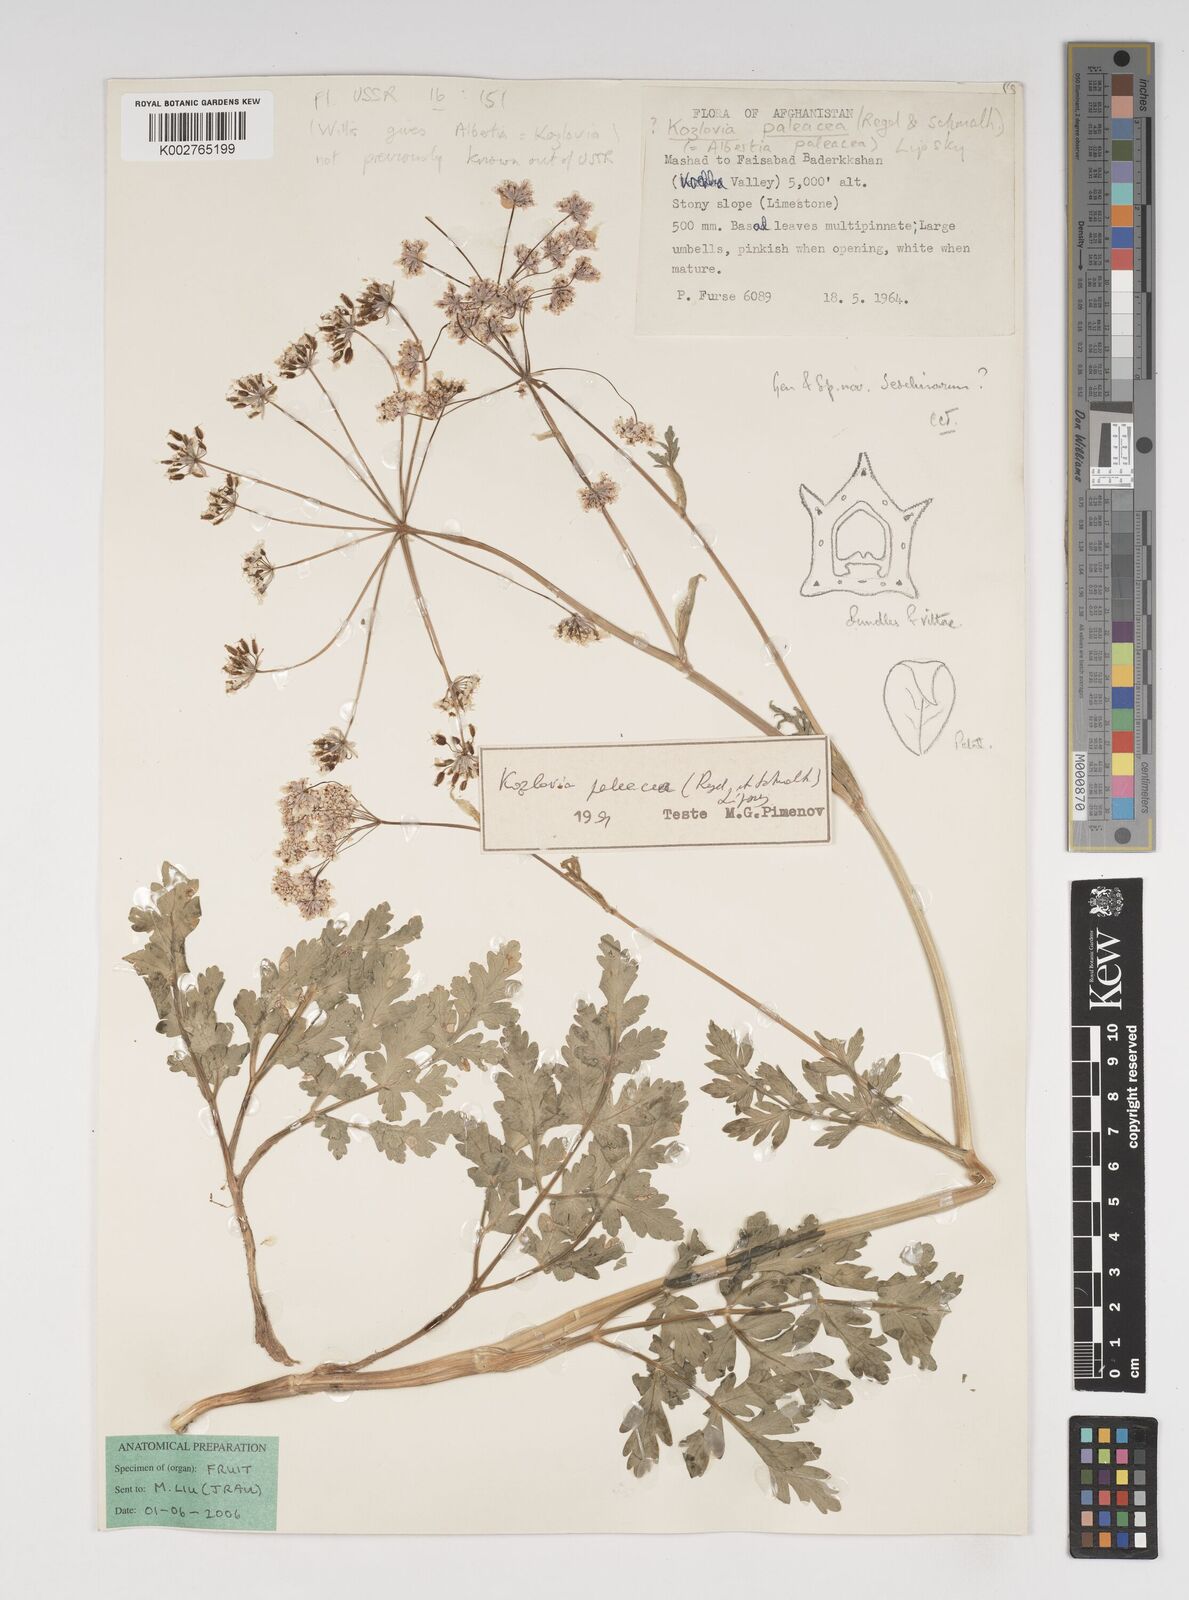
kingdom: Plantae
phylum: Tracheophyta
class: Magnoliopsida
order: Apiales
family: Apiaceae
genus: Kozlovia
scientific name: Kozlovia paleacea
